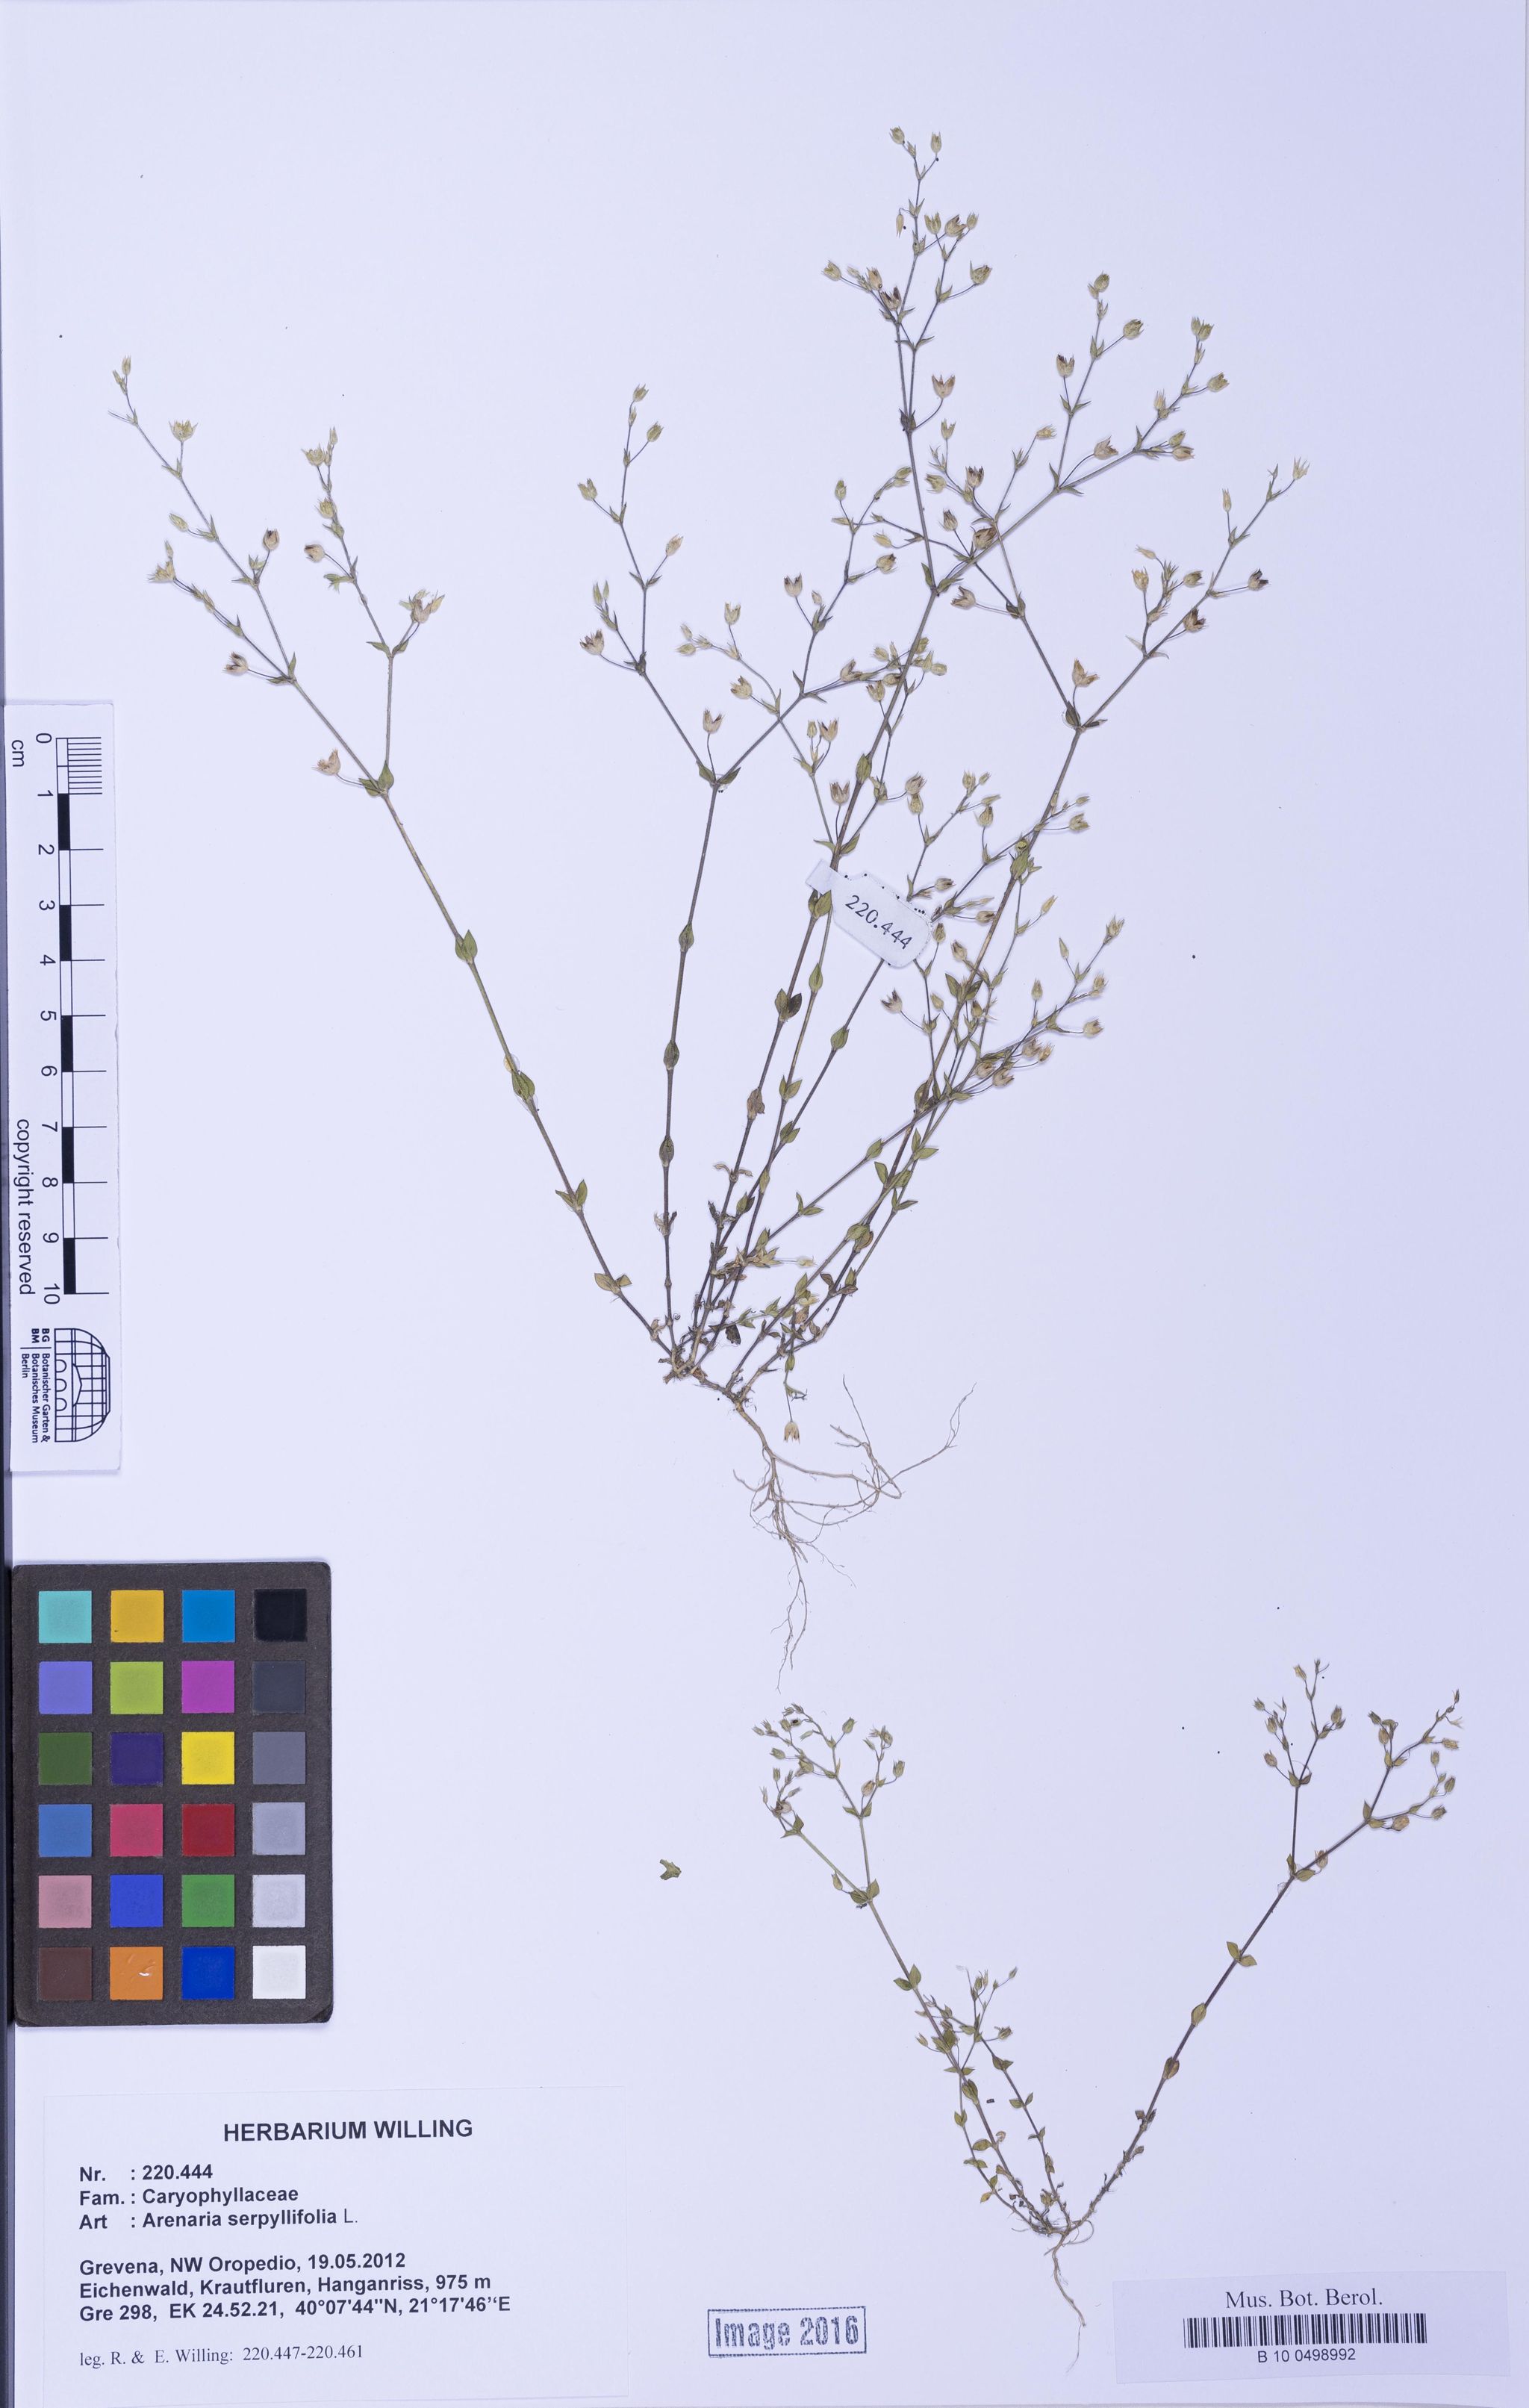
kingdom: Plantae
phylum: Tracheophyta
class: Magnoliopsida
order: Caryophyllales
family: Caryophyllaceae
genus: Arenaria
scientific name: Arenaria serpyllifolia
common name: Thyme-leaved sandwort
